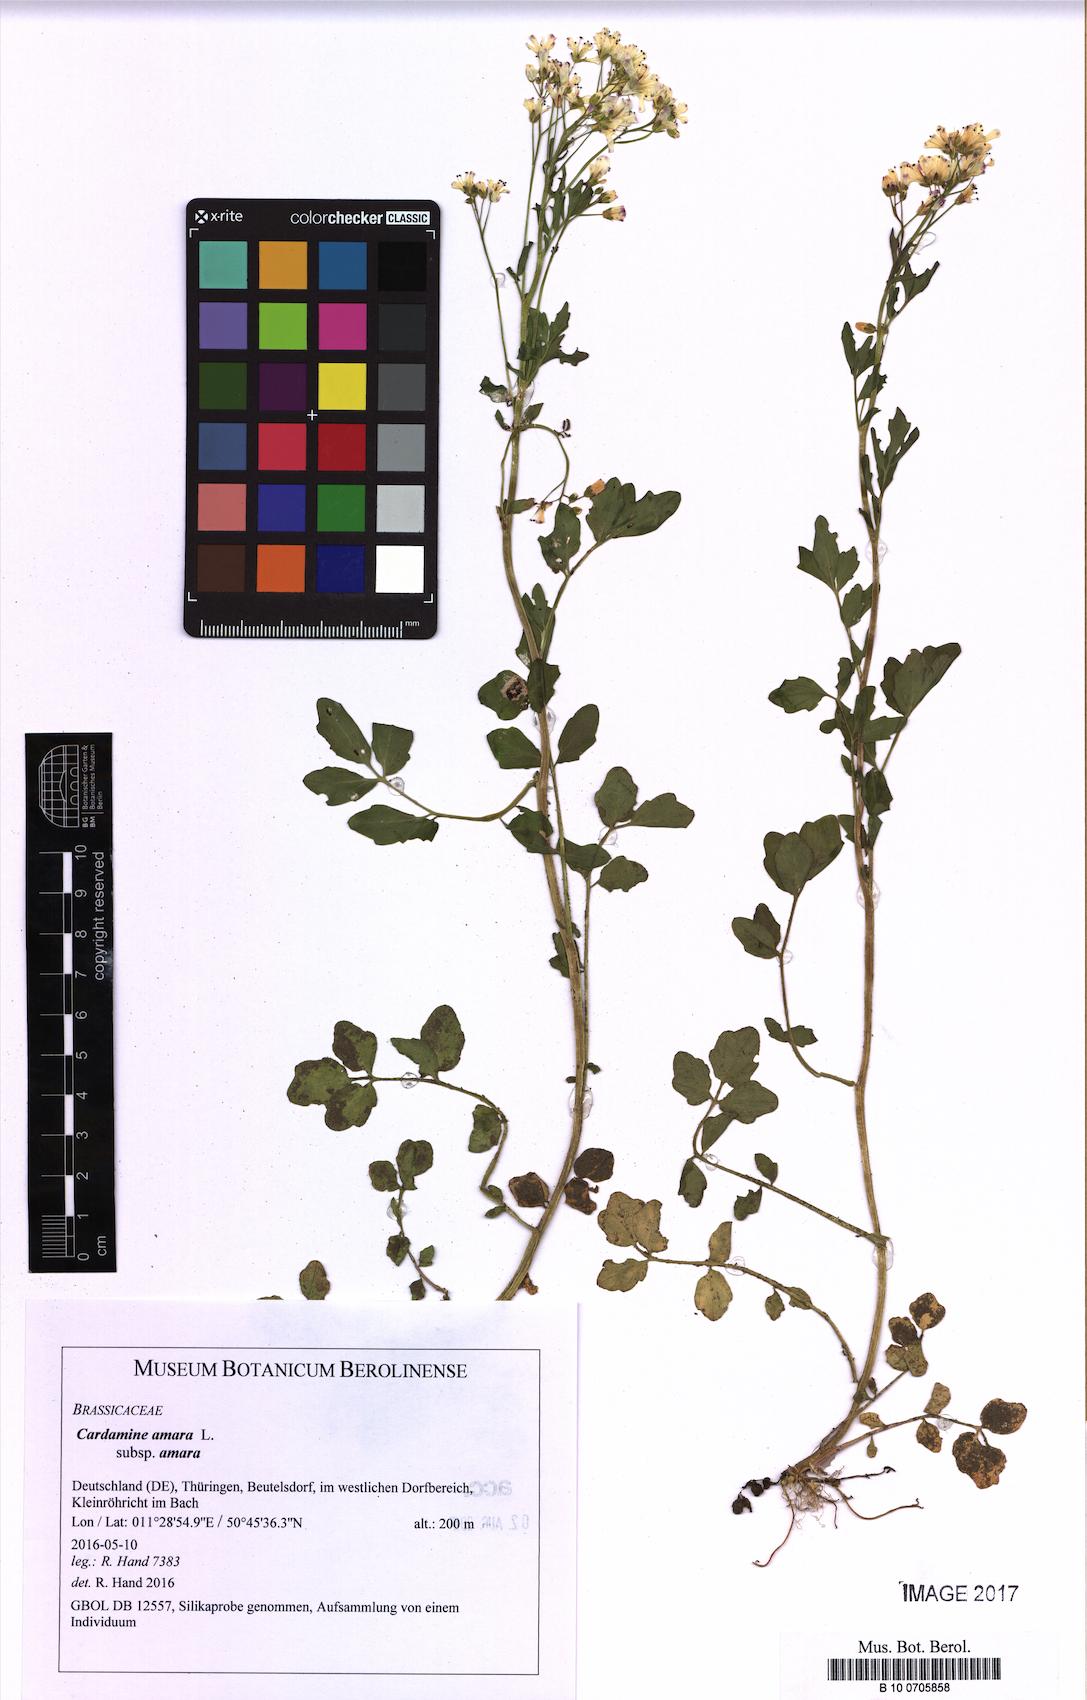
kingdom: Plantae
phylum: Tracheophyta
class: Magnoliopsida
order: Brassicales
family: Brassicaceae
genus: Cardamine
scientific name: Cardamine amara
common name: Large bitter-cress
